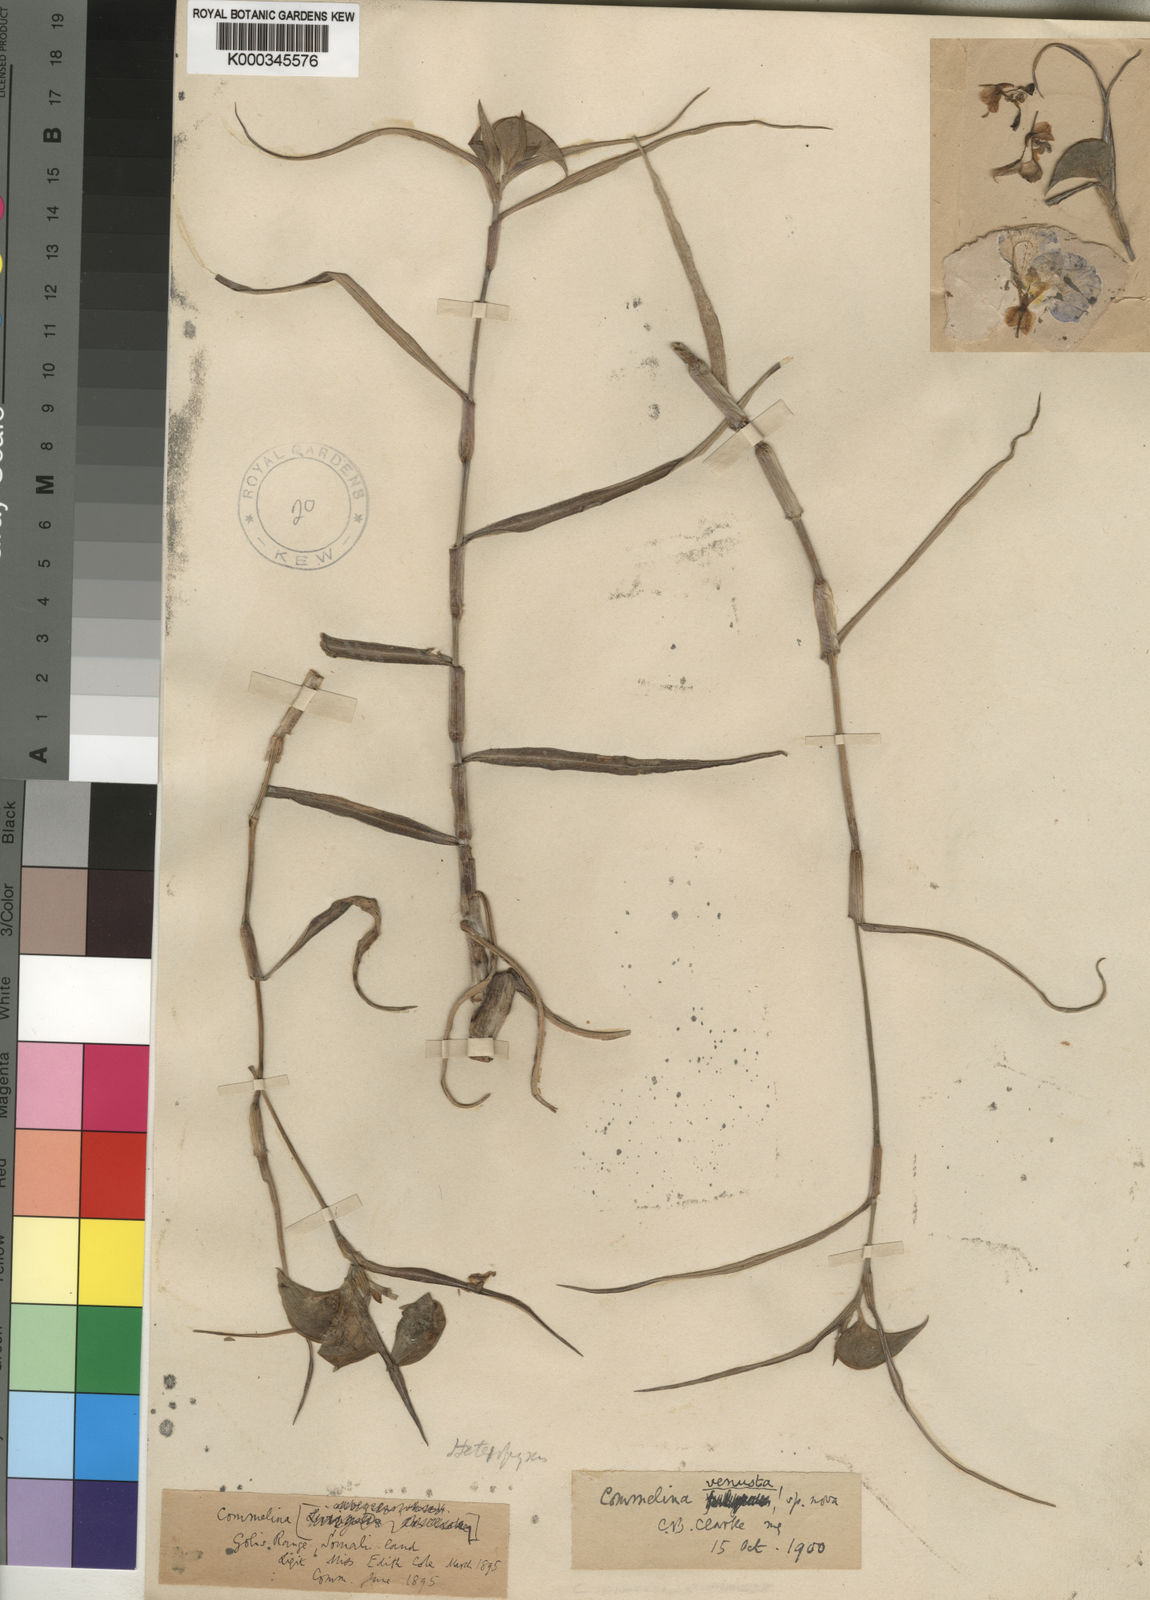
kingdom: Plantae
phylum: Tracheophyta
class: Liliopsida
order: Commelinales
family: Commelinaceae
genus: Commelina
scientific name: Commelina erecta
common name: Blousel blommetjie
